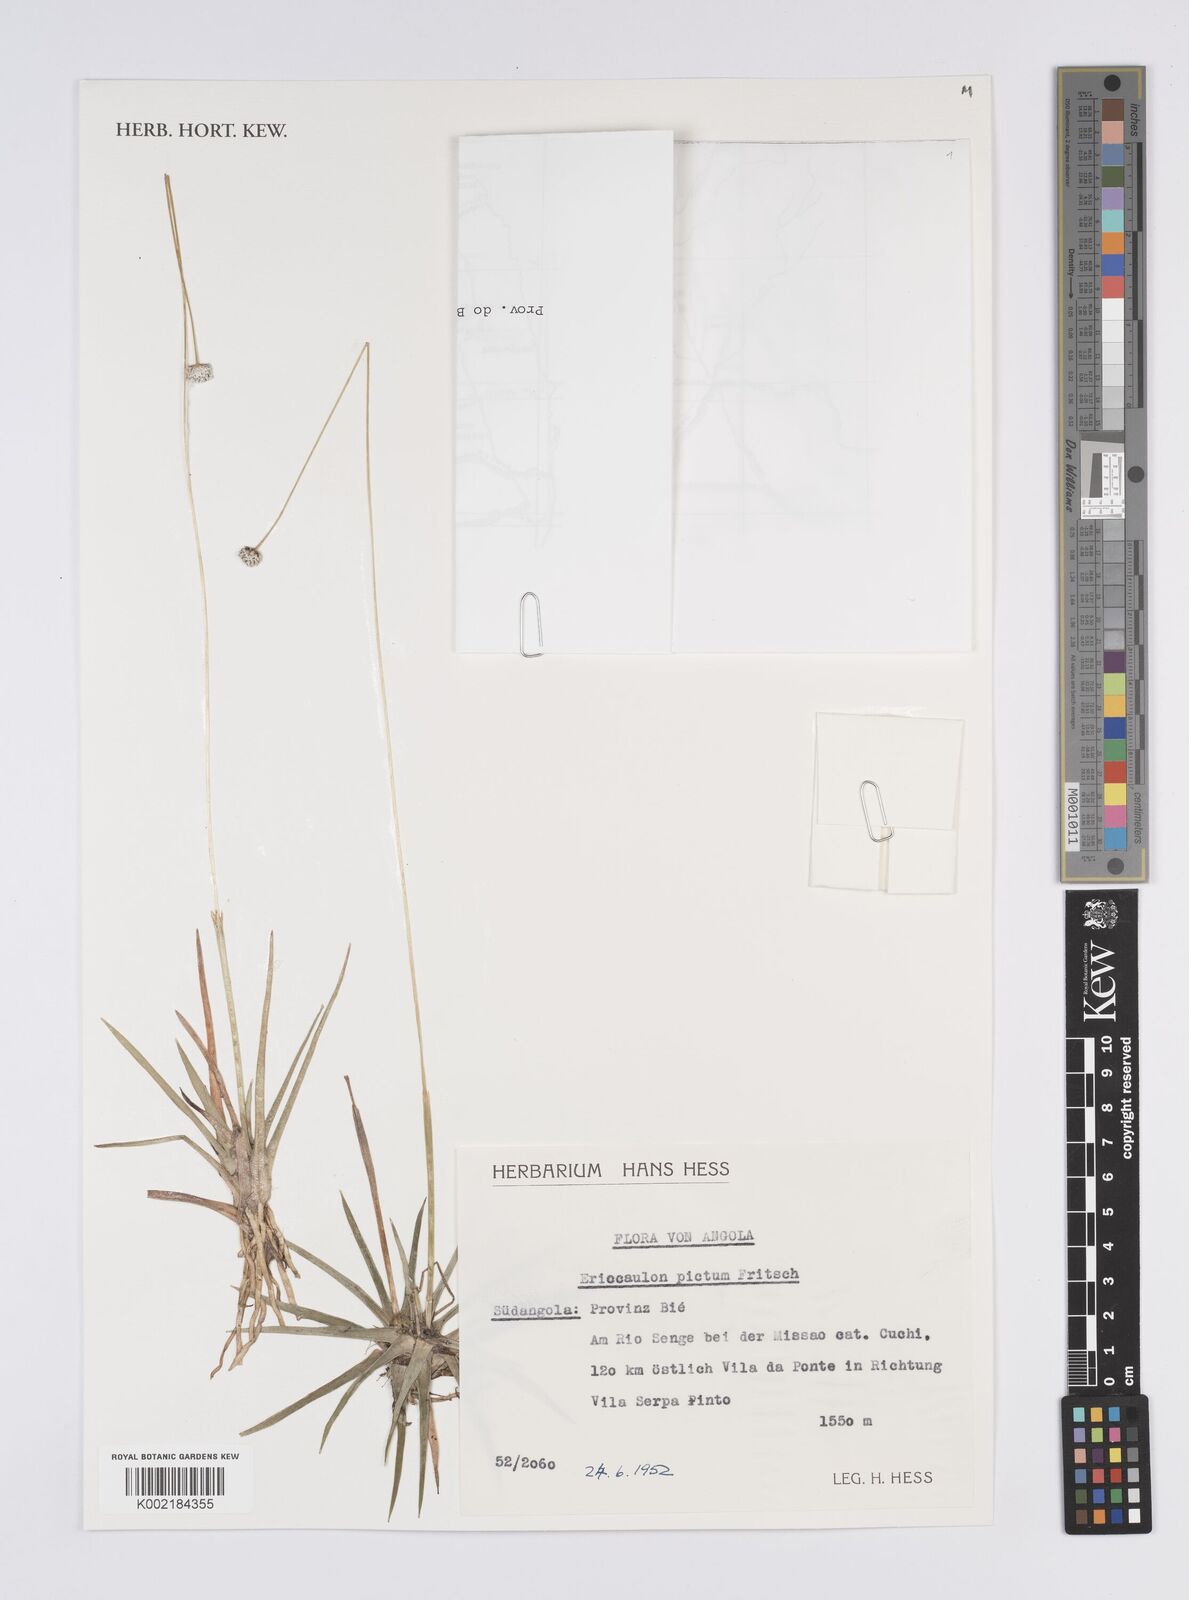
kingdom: Plantae
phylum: Tracheophyta
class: Liliopsida
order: Poales
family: Eriocaulaceae
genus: Eriocaulon
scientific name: Eriocaulon pictum
